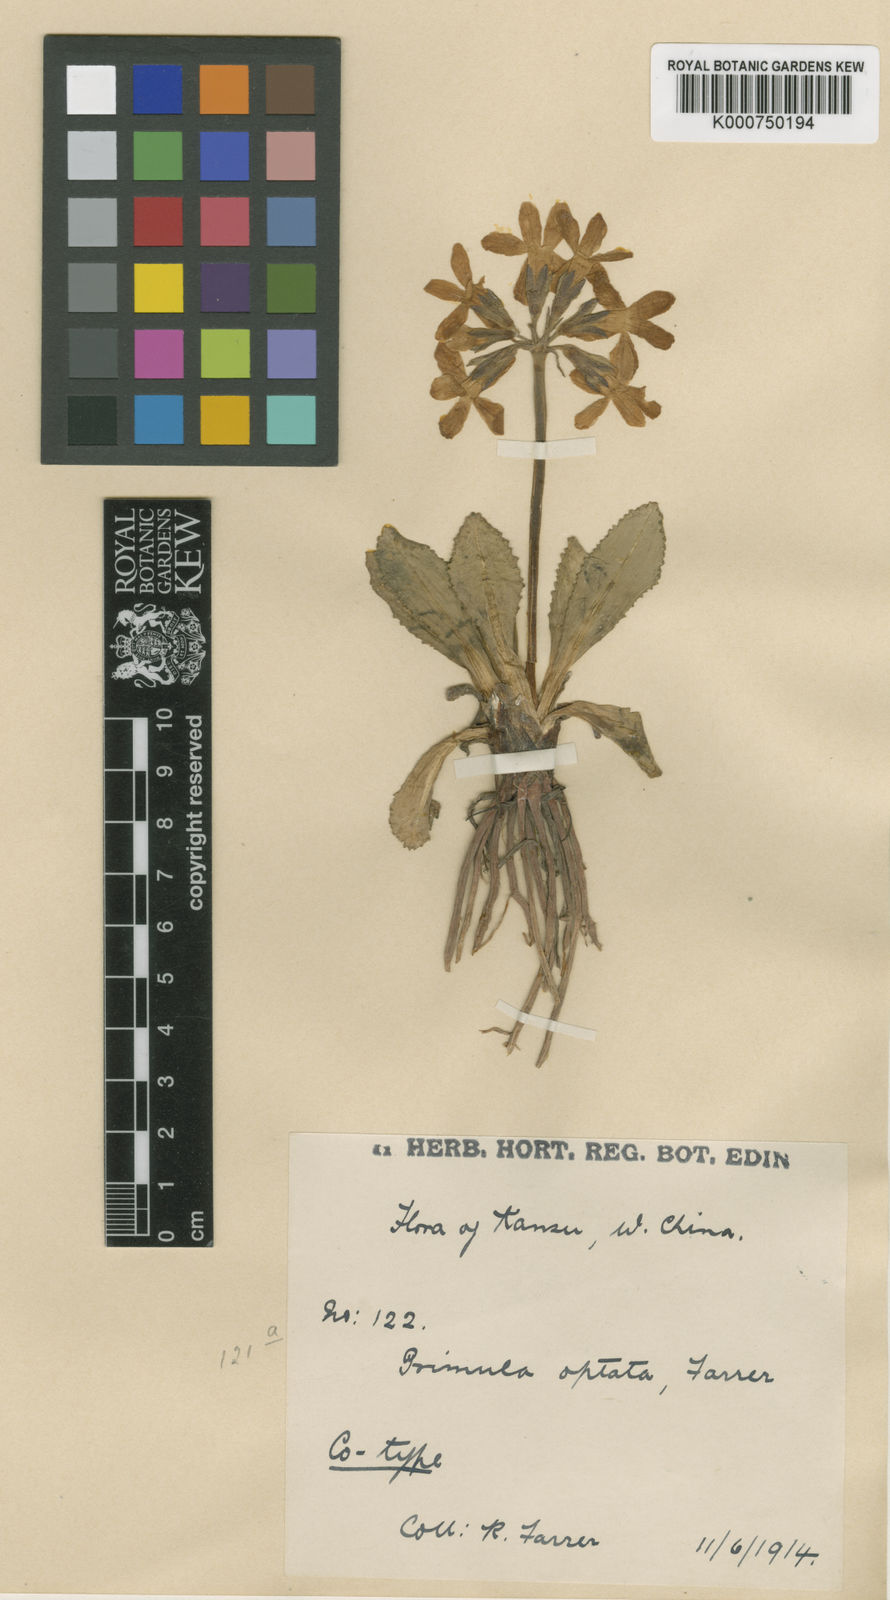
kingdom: Plantae
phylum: Tracheophyta
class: Magnoliopsida
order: Ericales
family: Primulaceae
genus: Primula
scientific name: Primula
